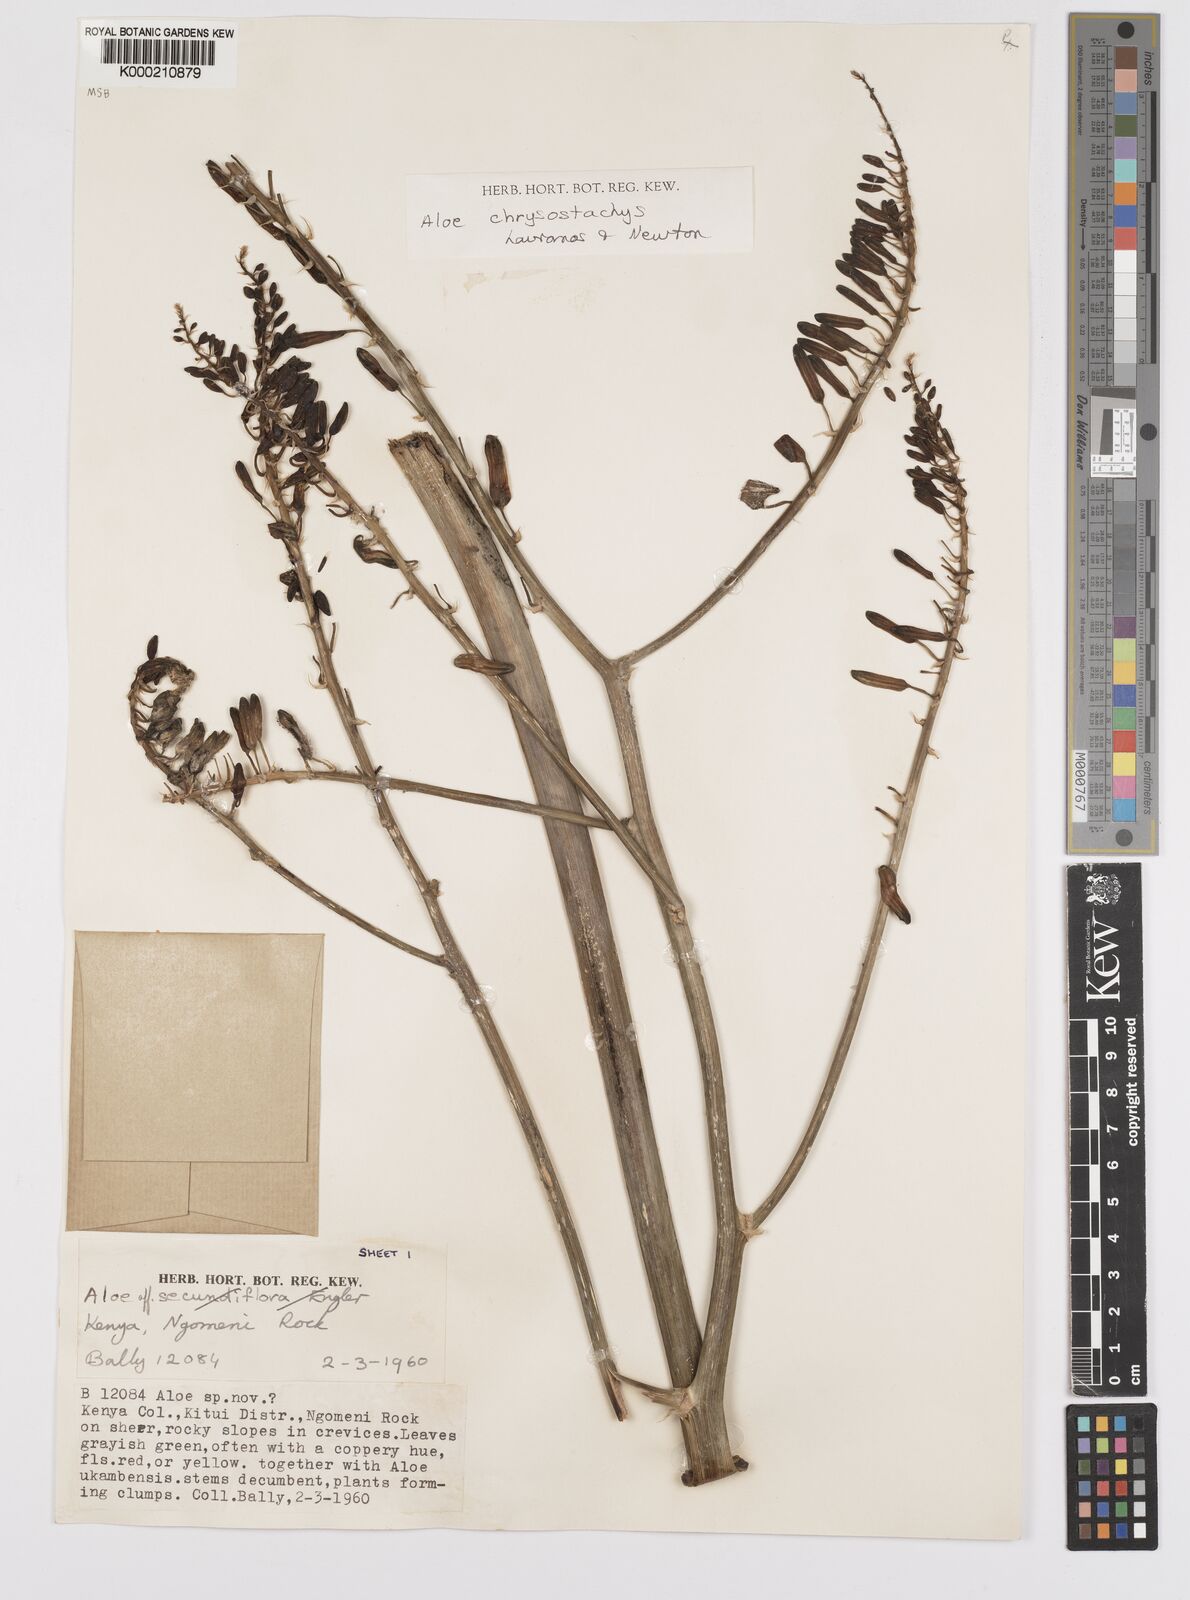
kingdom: Plantae
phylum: Tracheophyta
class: Liliopsida
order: Asparagales
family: Asphodelaceae
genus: Aloe
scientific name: Aloe chrysostachys
